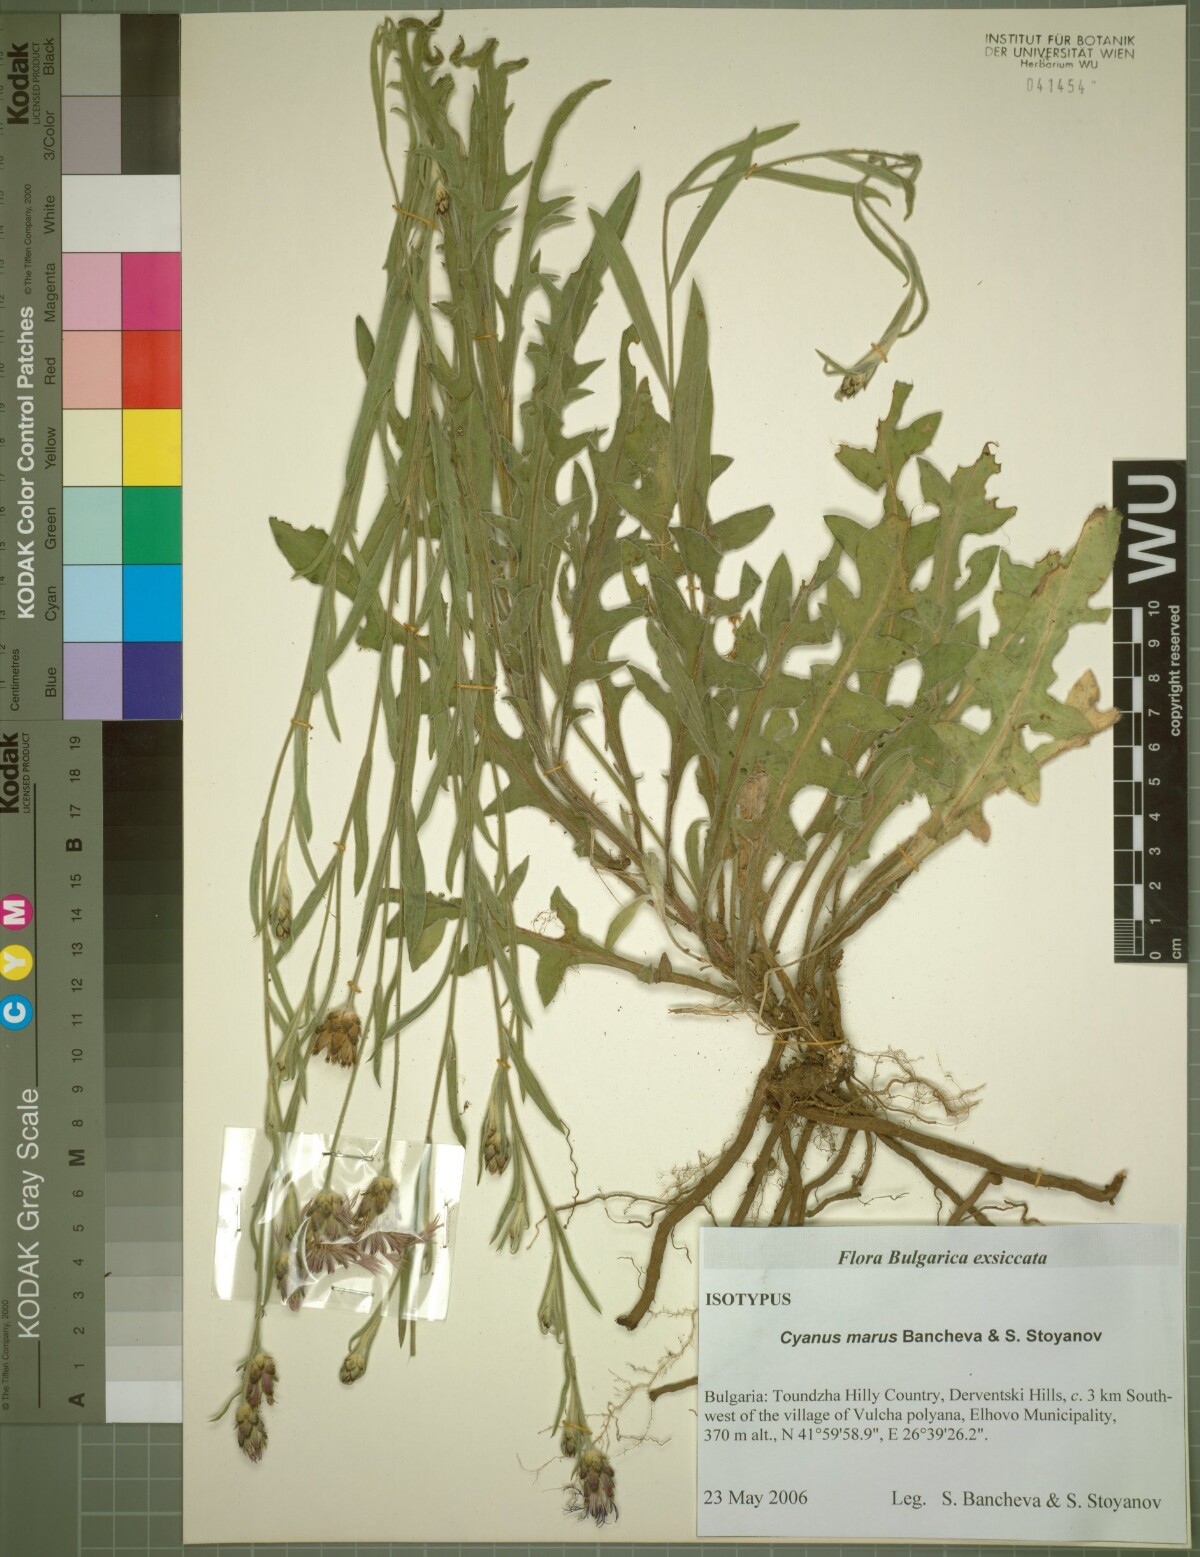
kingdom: Animalia
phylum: Arthropoda
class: Insecta
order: Diptera
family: Calliphoridae
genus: Cyanus
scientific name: Cyanus
